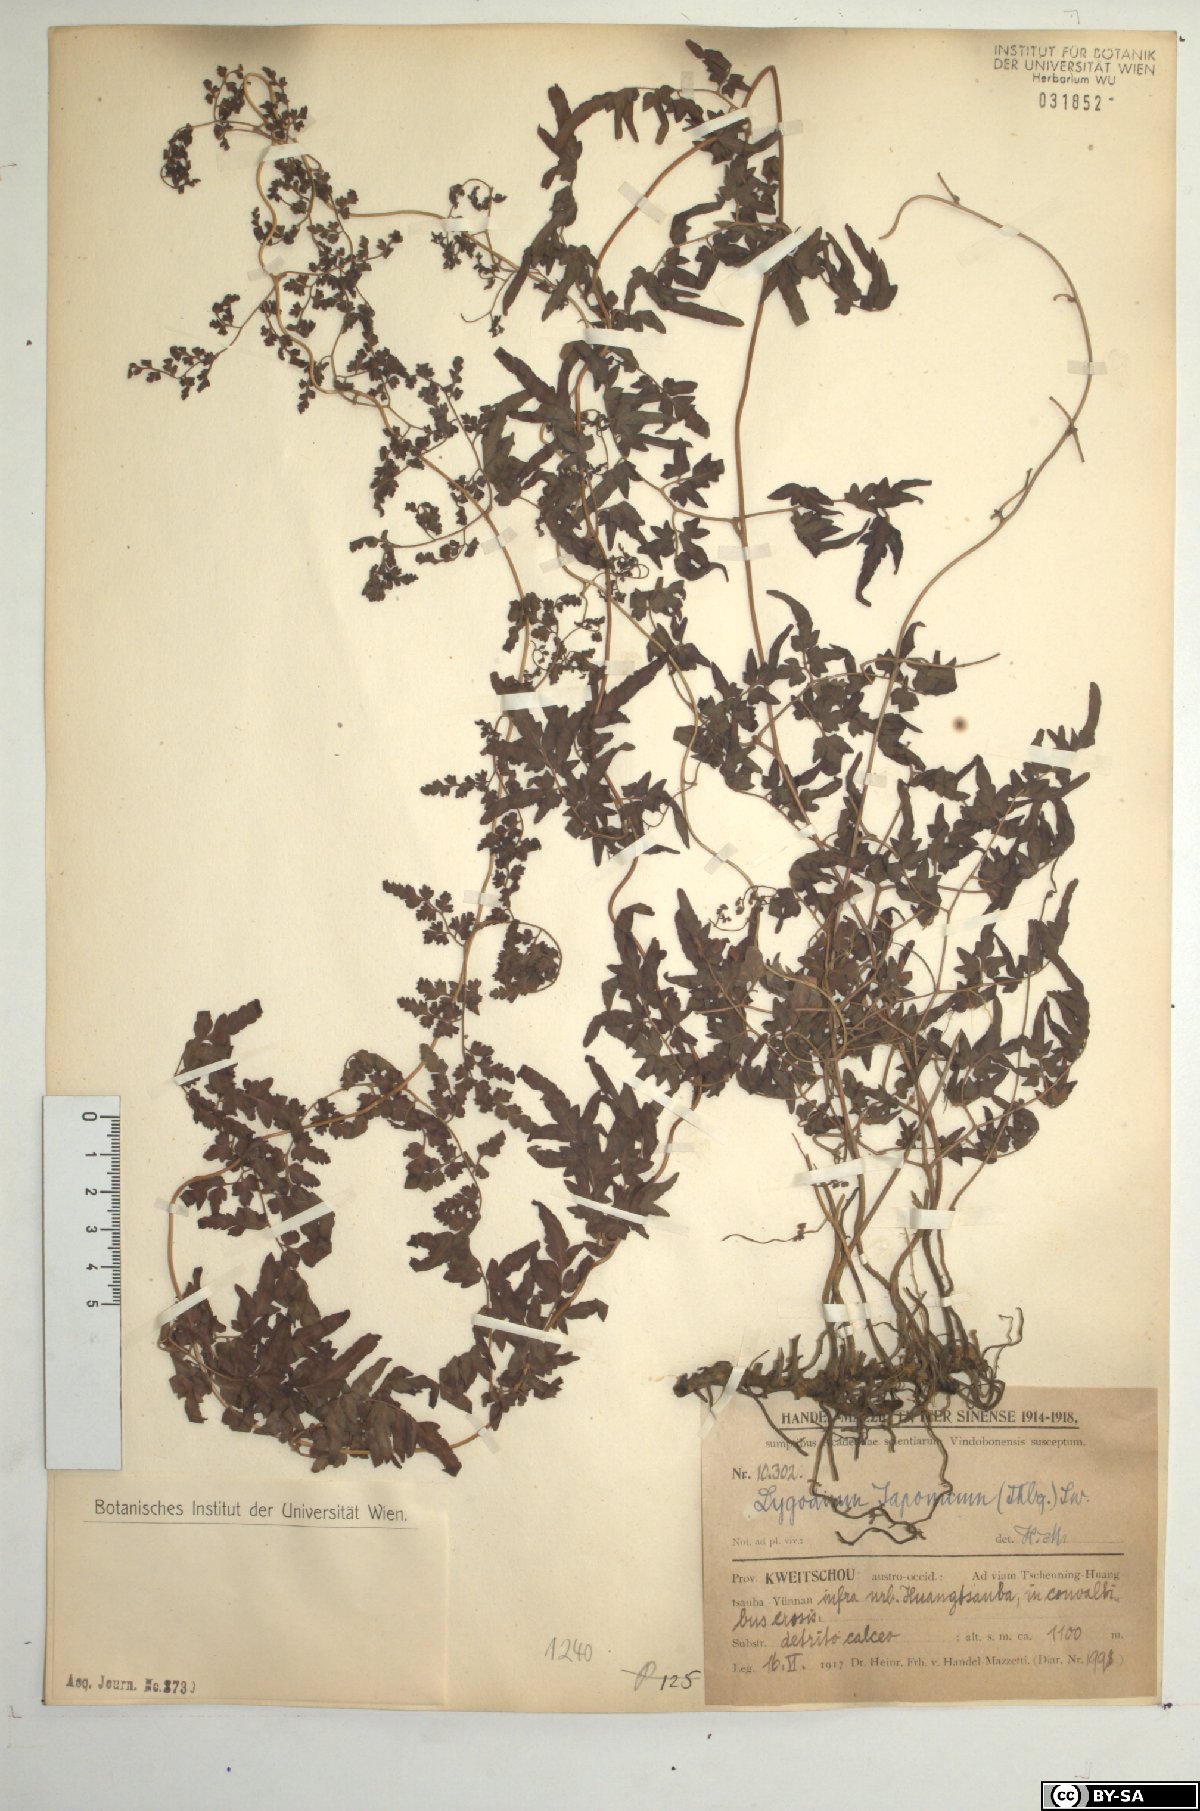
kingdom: Plantae
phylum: Tracheophyta
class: Polypodiopsida
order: Schizaeales
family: Lygodiaceae
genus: Lygodium
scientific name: Lygodium japonicum
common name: Japanese climbing fern
